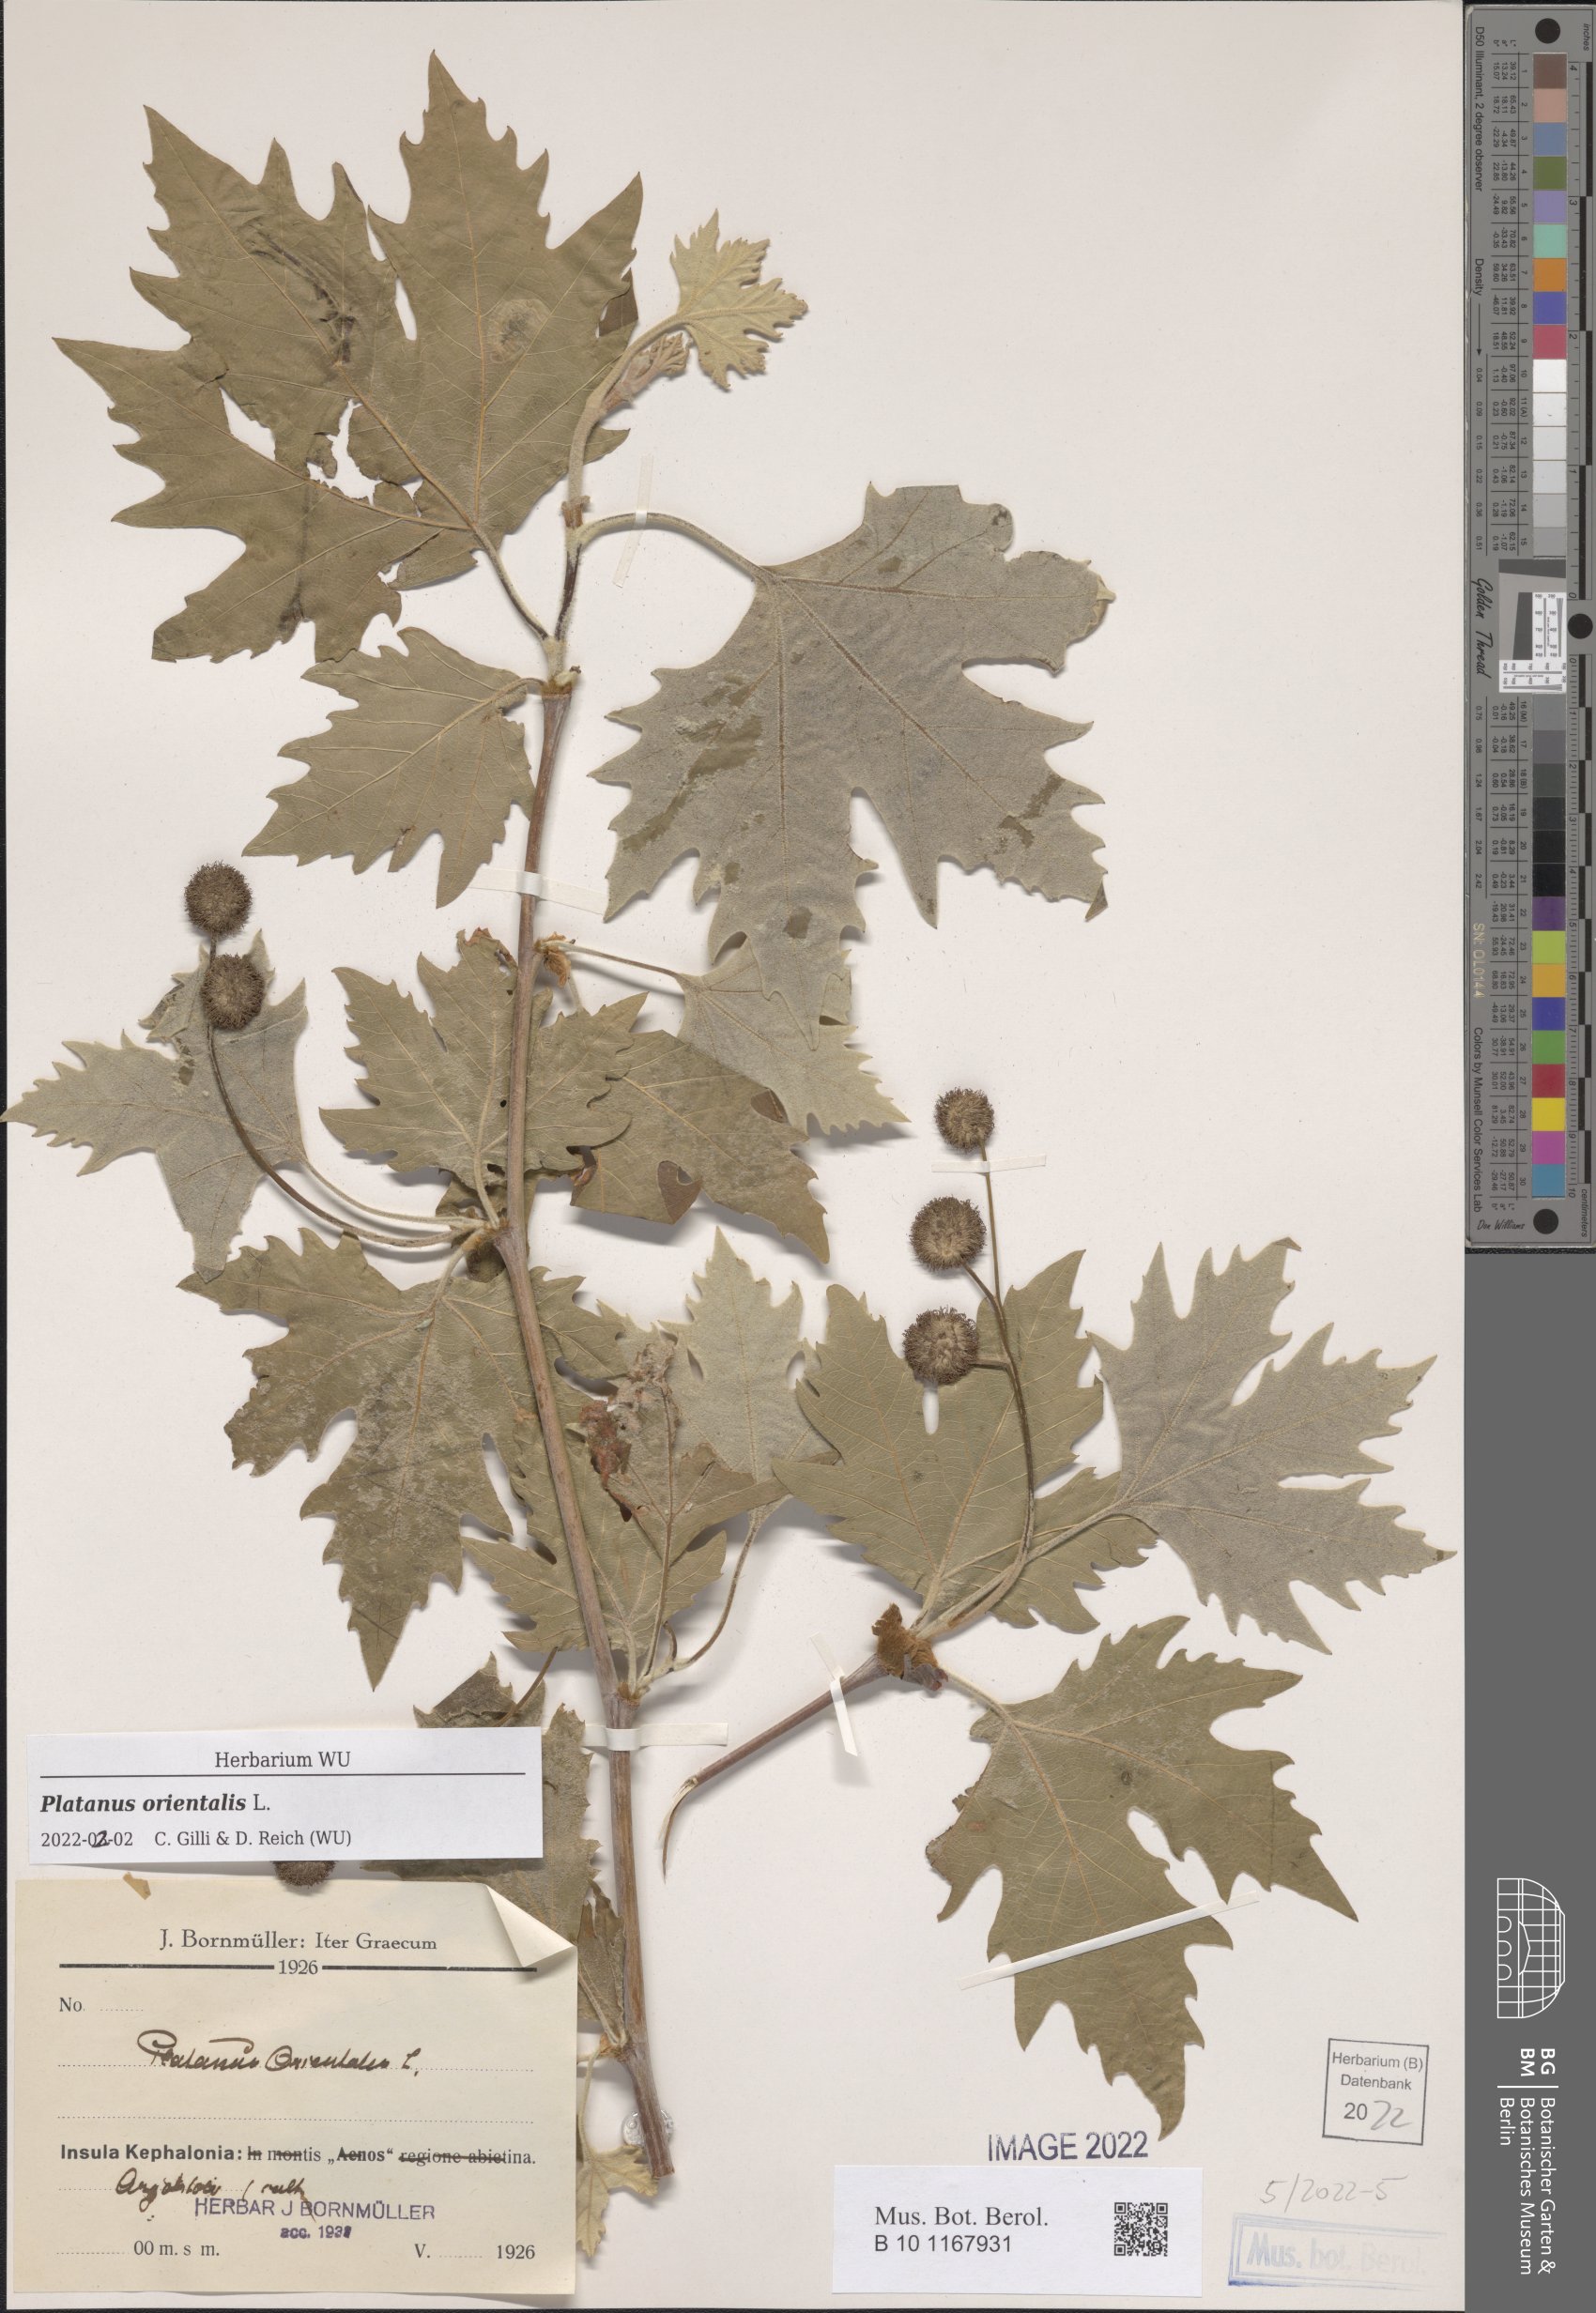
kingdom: Plantae
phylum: Tracheophyta
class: Magnoliopsida
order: Proteales
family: Platanaceae
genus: Platanus
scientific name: Platanus orientalis
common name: Oriental plane
